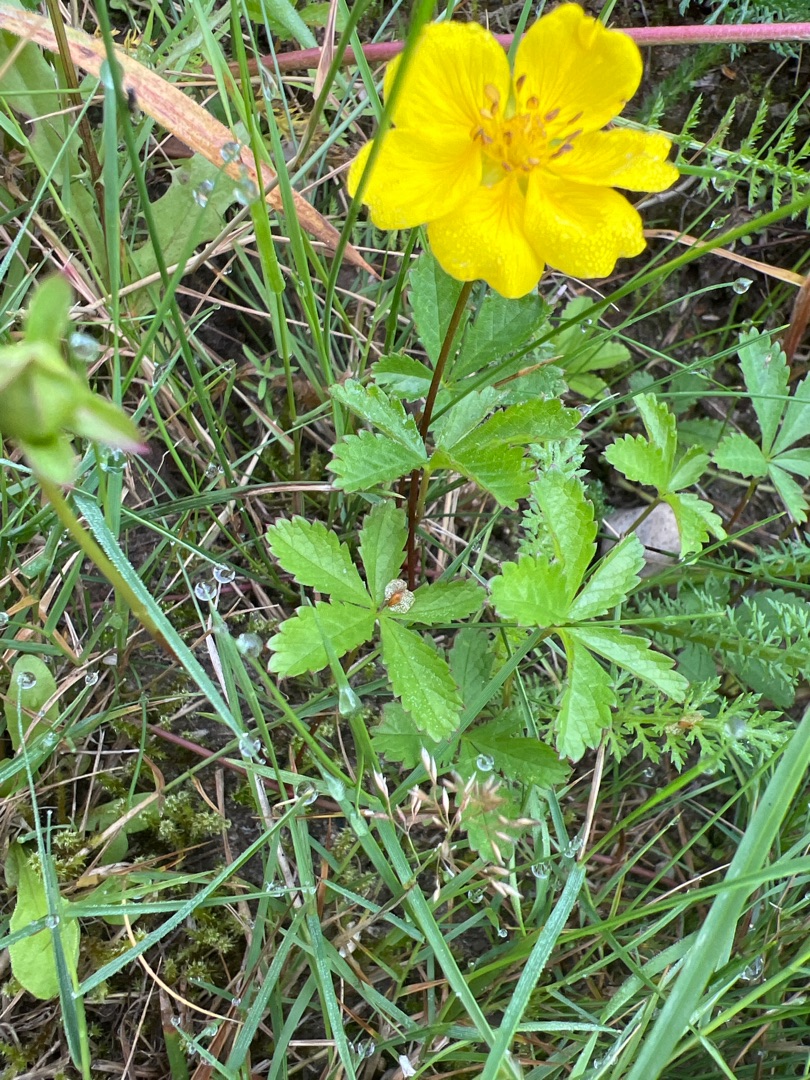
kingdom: Plantae
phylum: Tracheophyta
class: Magnoliopsida
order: Rosales
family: Rosaceae
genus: Potentilla
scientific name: Potentilla reptans
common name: Krybende potentil
